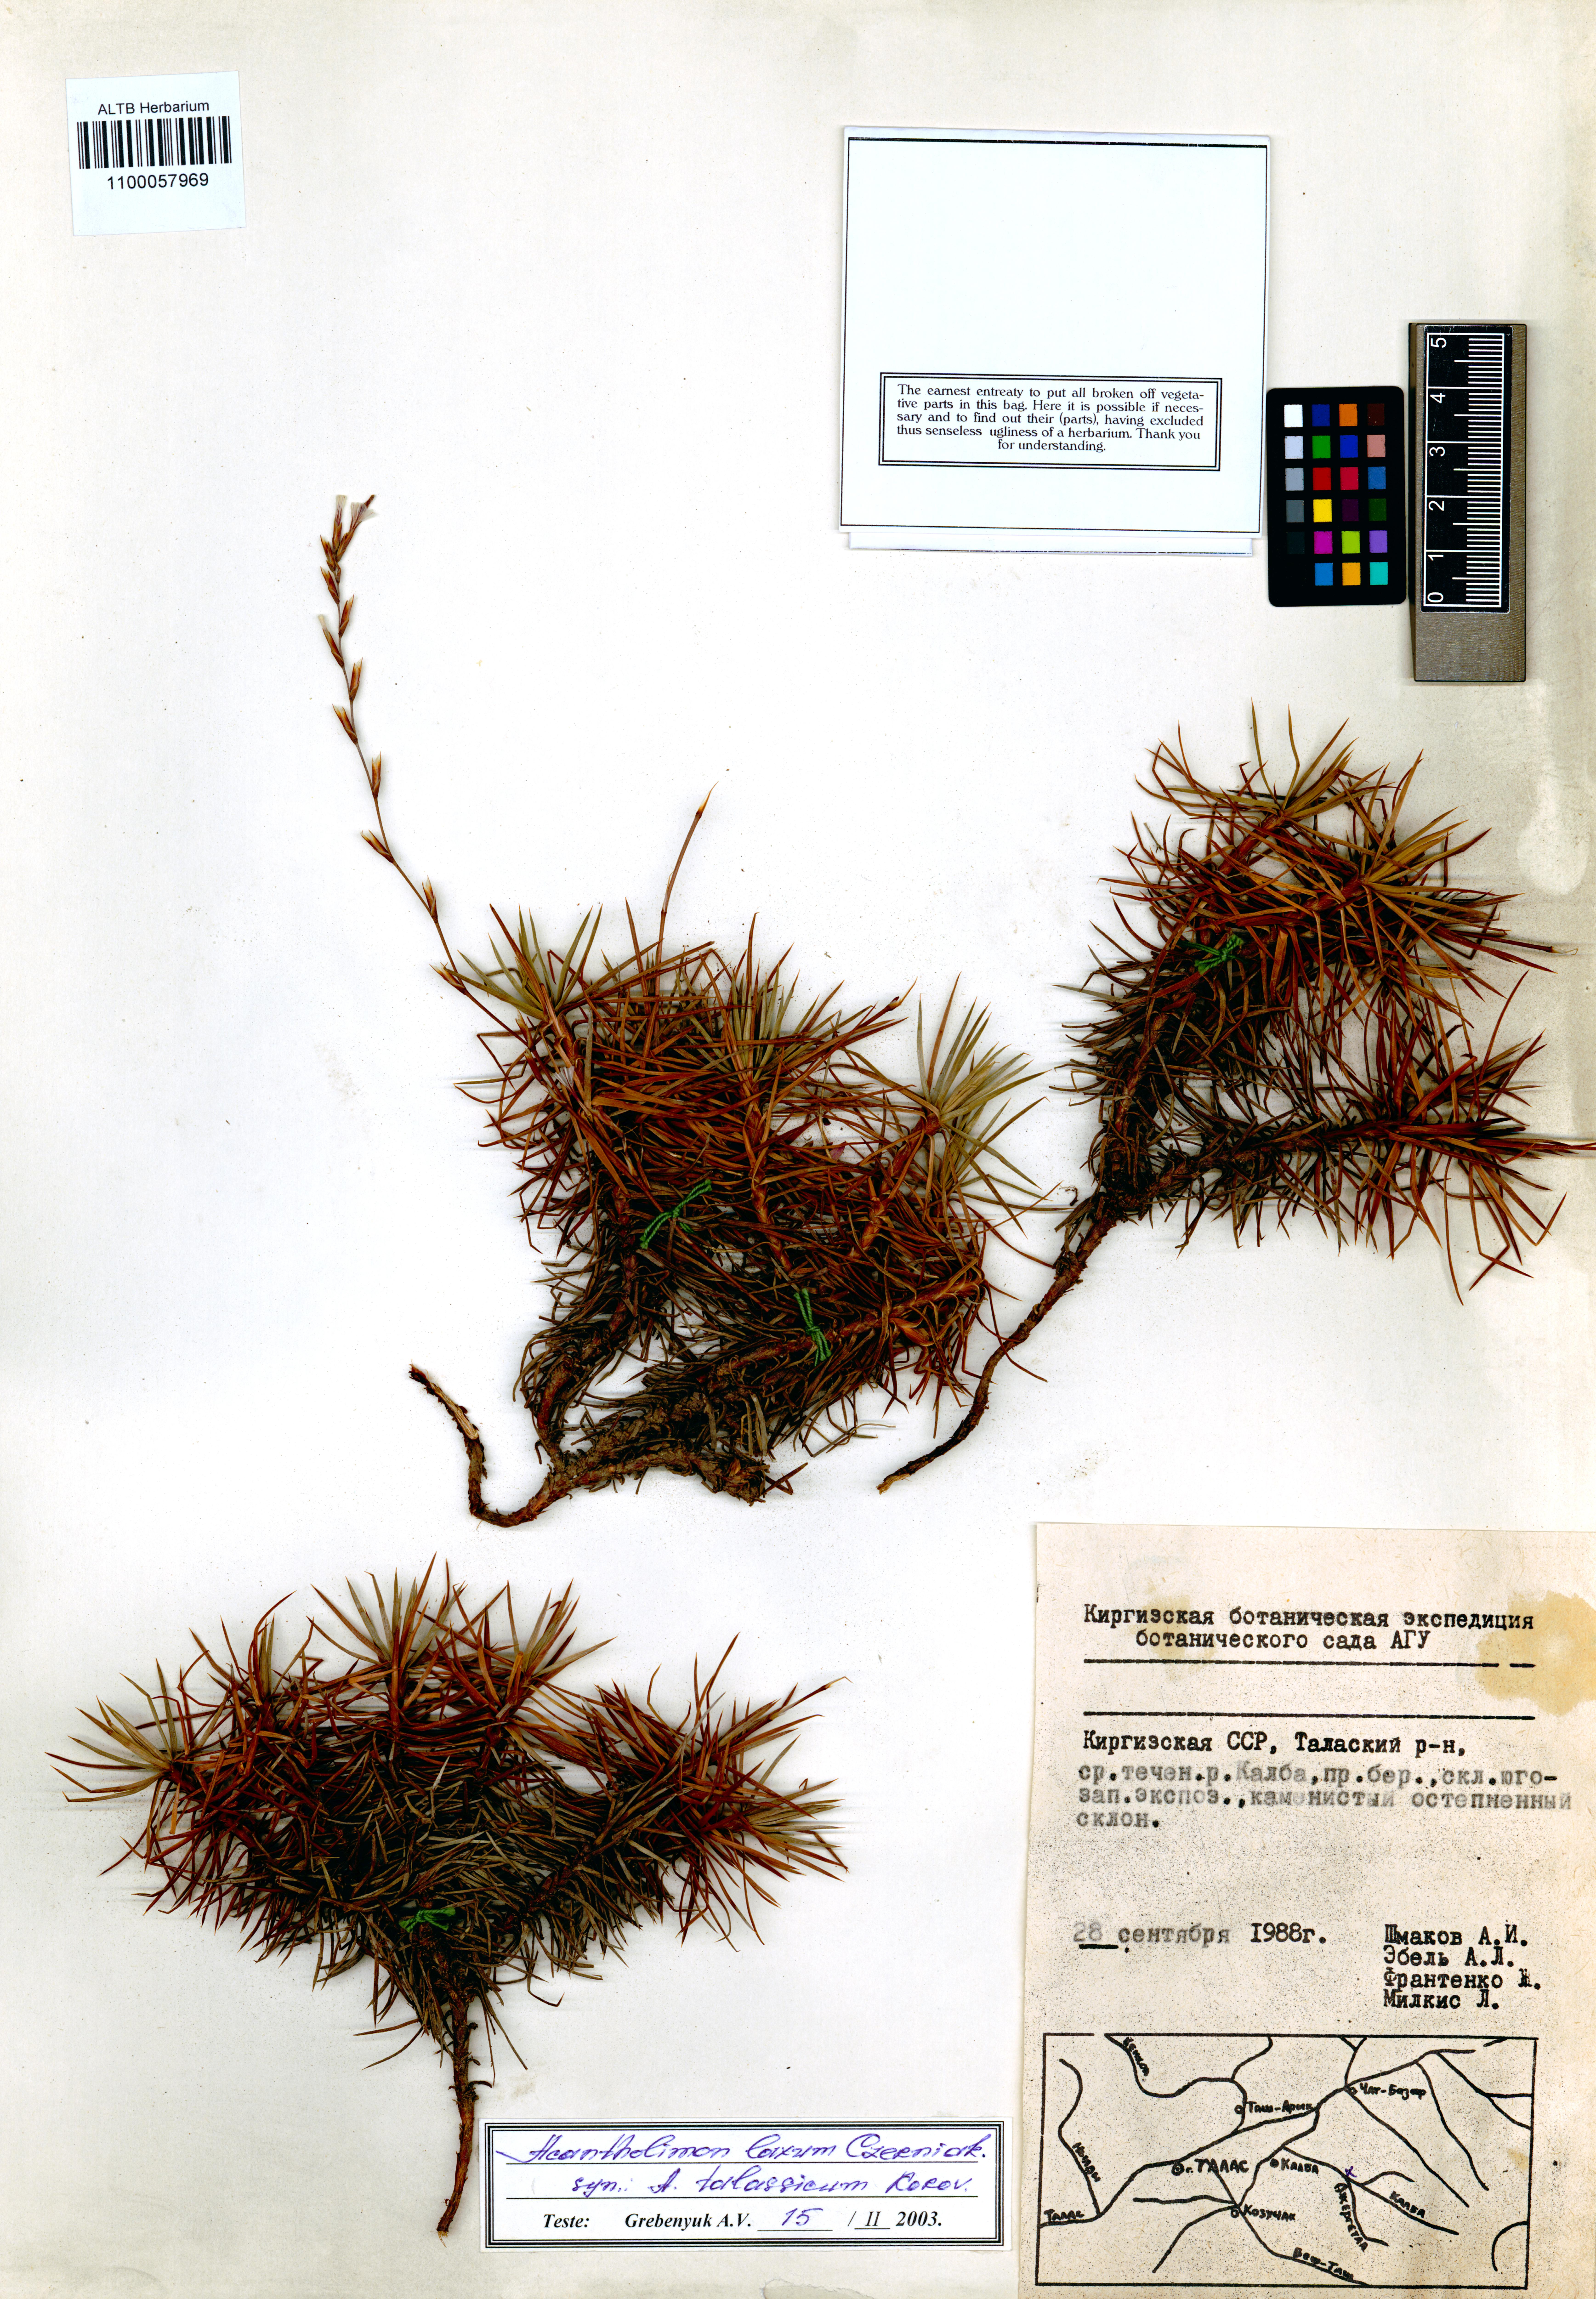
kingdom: Plantae
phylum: Tracheophyta
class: Magnoliopsida
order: Caryophyllales
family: Plumbaginaceae
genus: Acantholimon
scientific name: Acantholimon laxum
